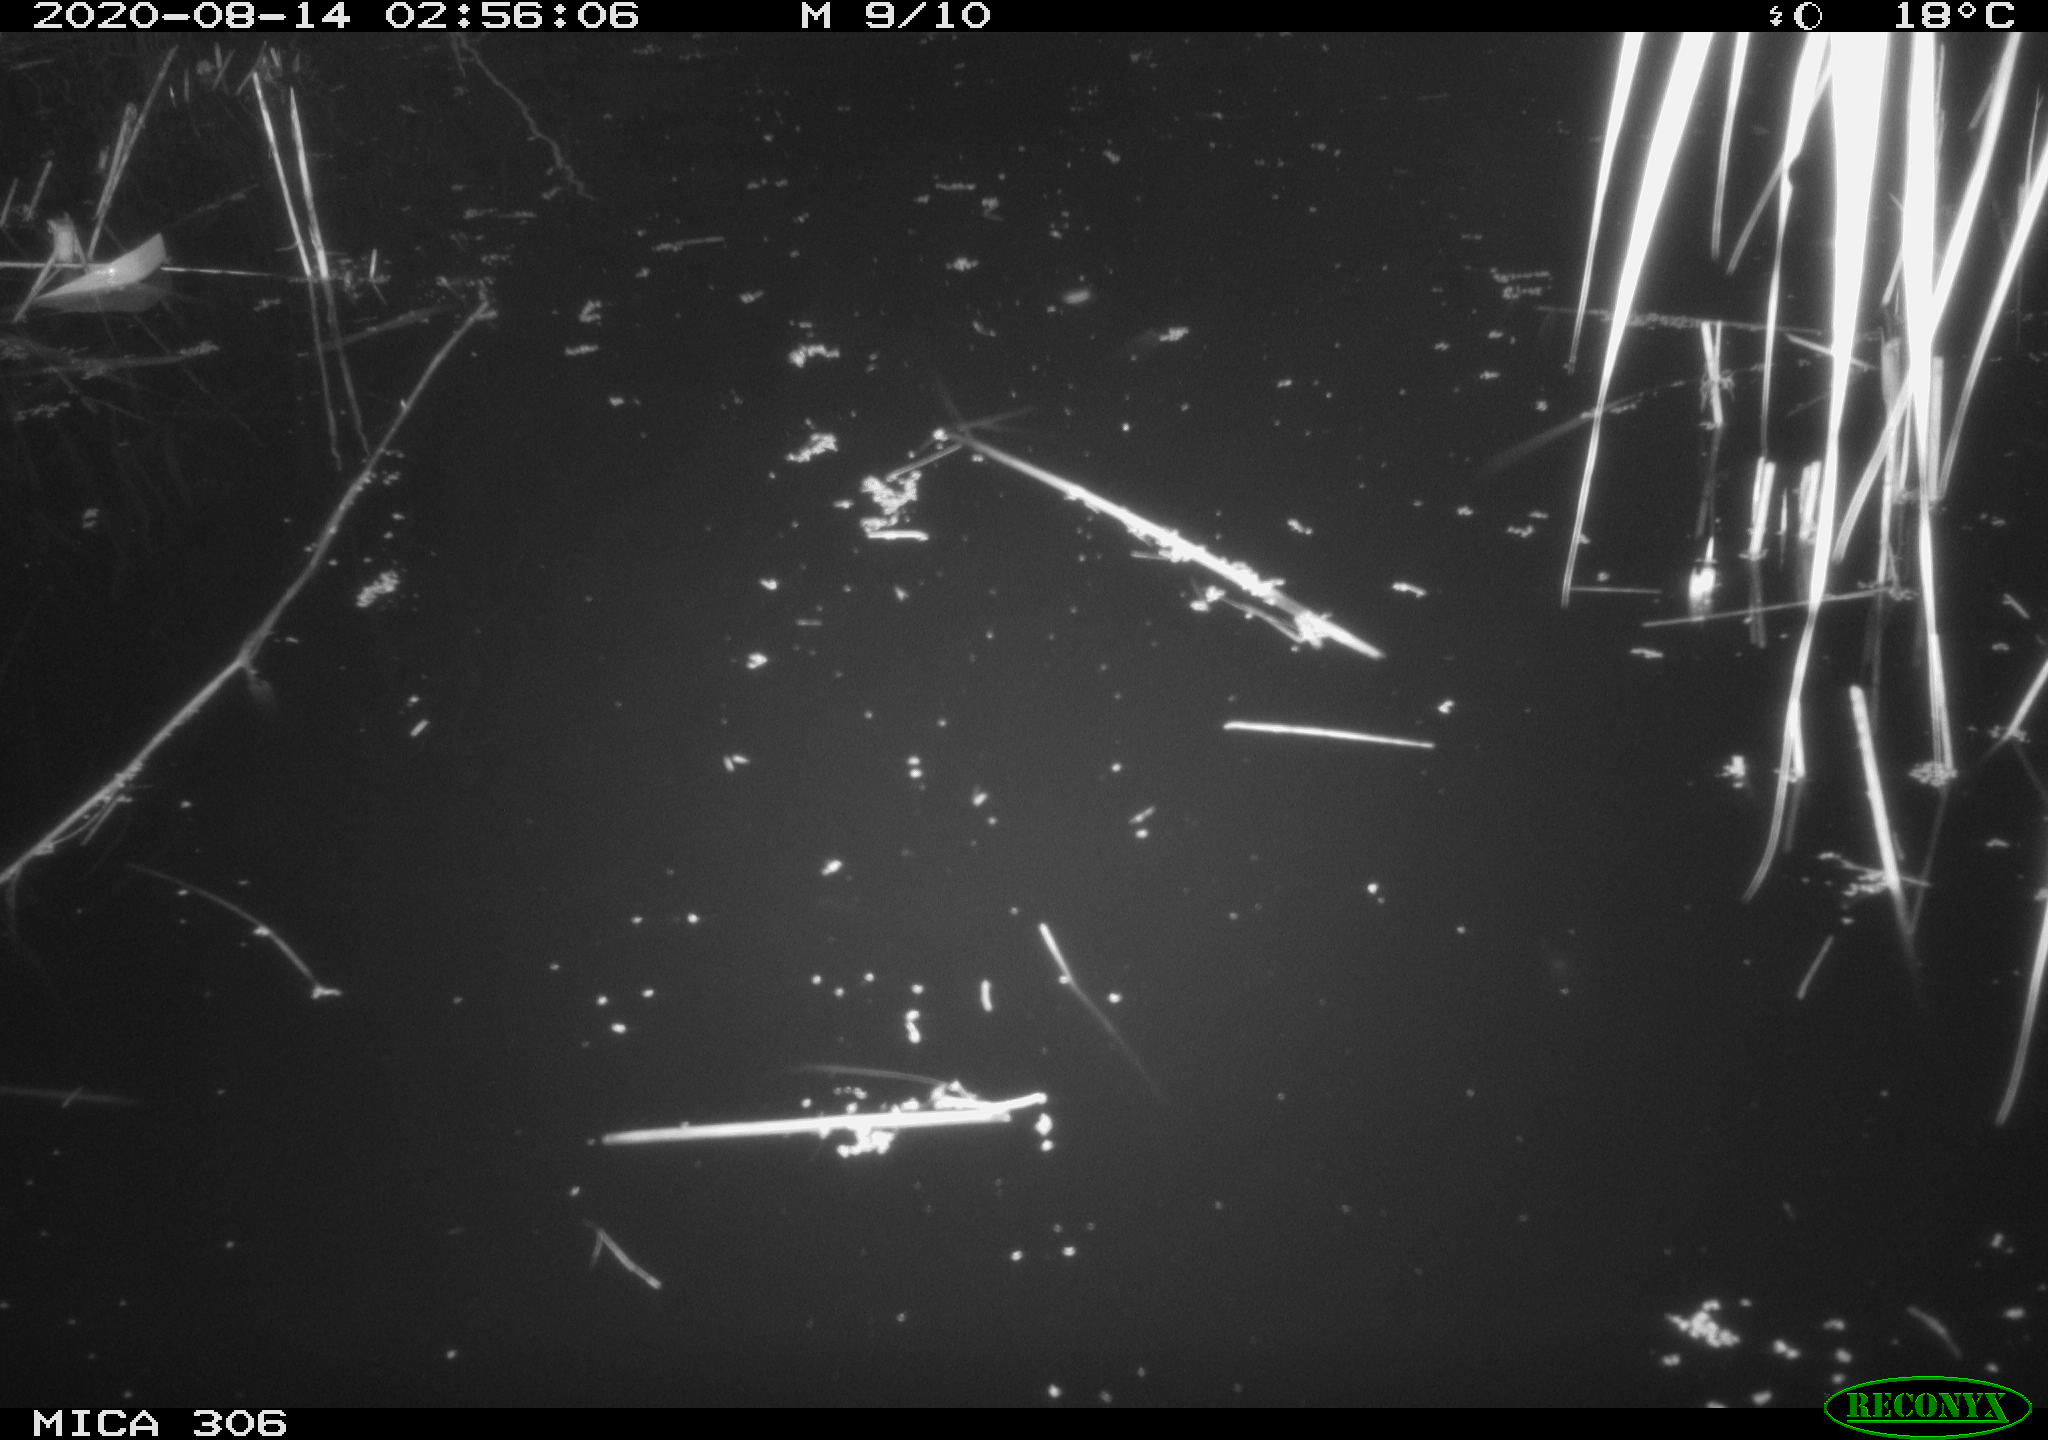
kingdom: Animalia
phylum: Chordata
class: Mammalia
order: Rodentia
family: Muridae
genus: Rattus
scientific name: Rattus norvegicus
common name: Brown rat
